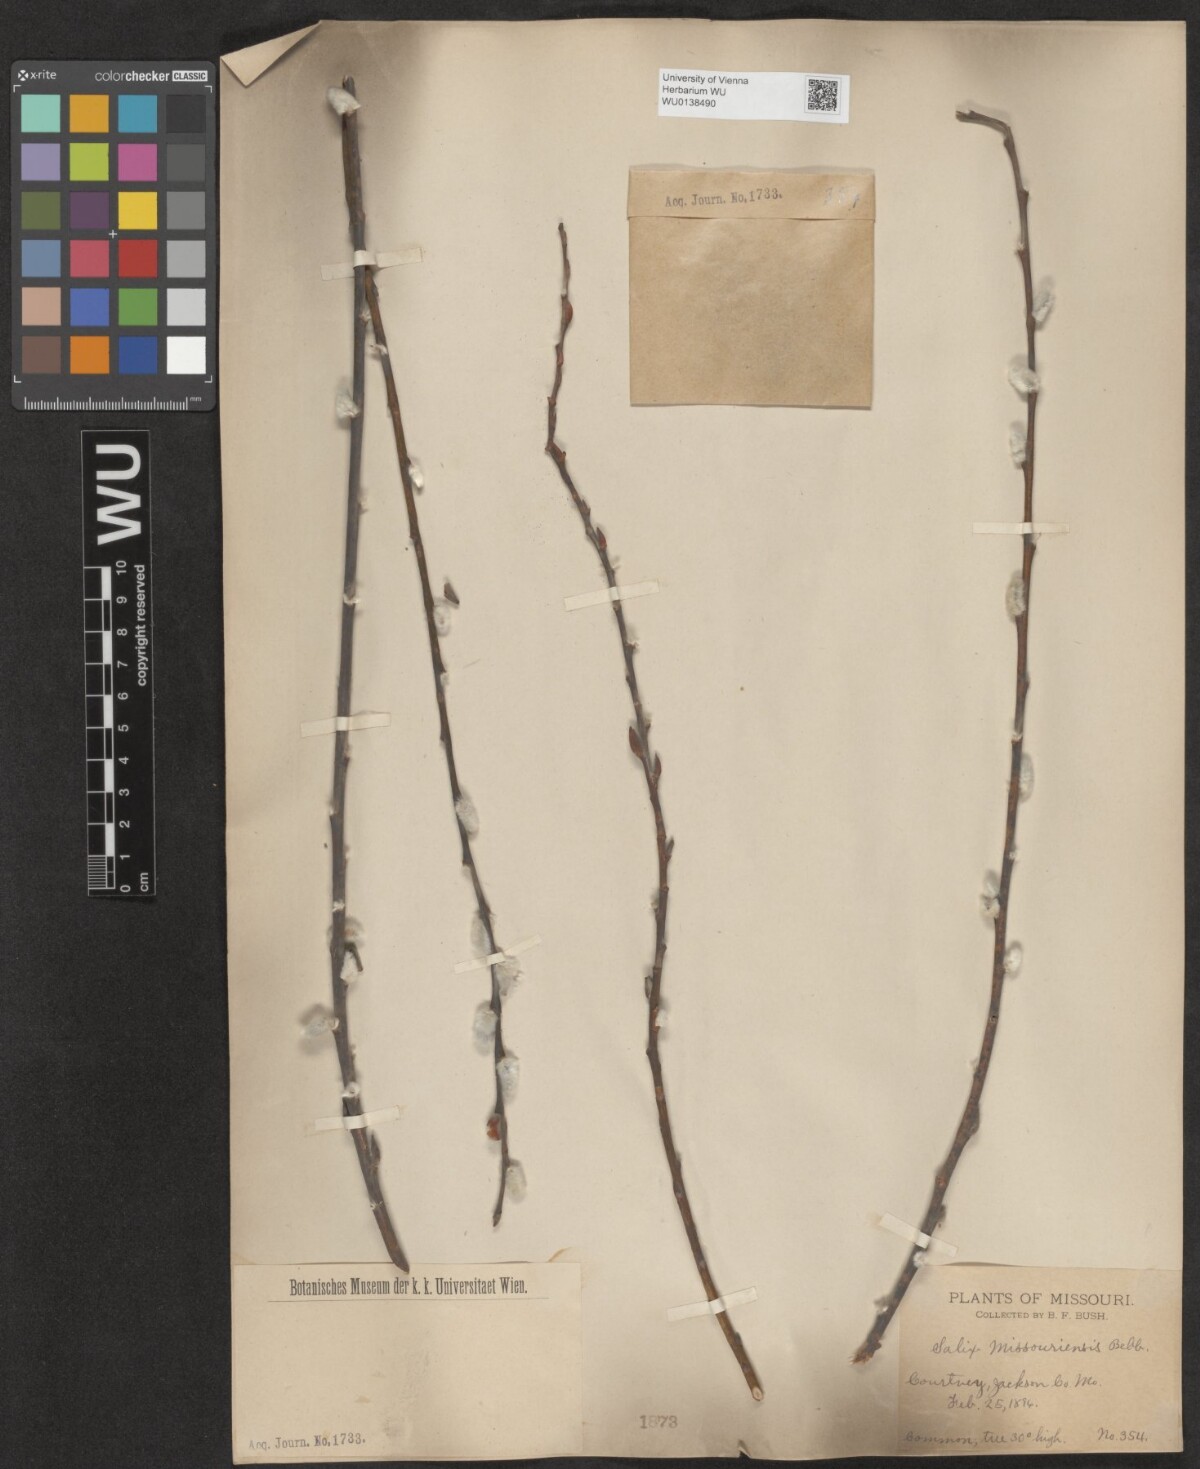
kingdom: Plantae
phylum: Tracheophyta
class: Magnoliopsida
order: Malpighiales
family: Salicaceae
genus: Salix
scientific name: Salix eriocephala
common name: Heart-leaved willow
